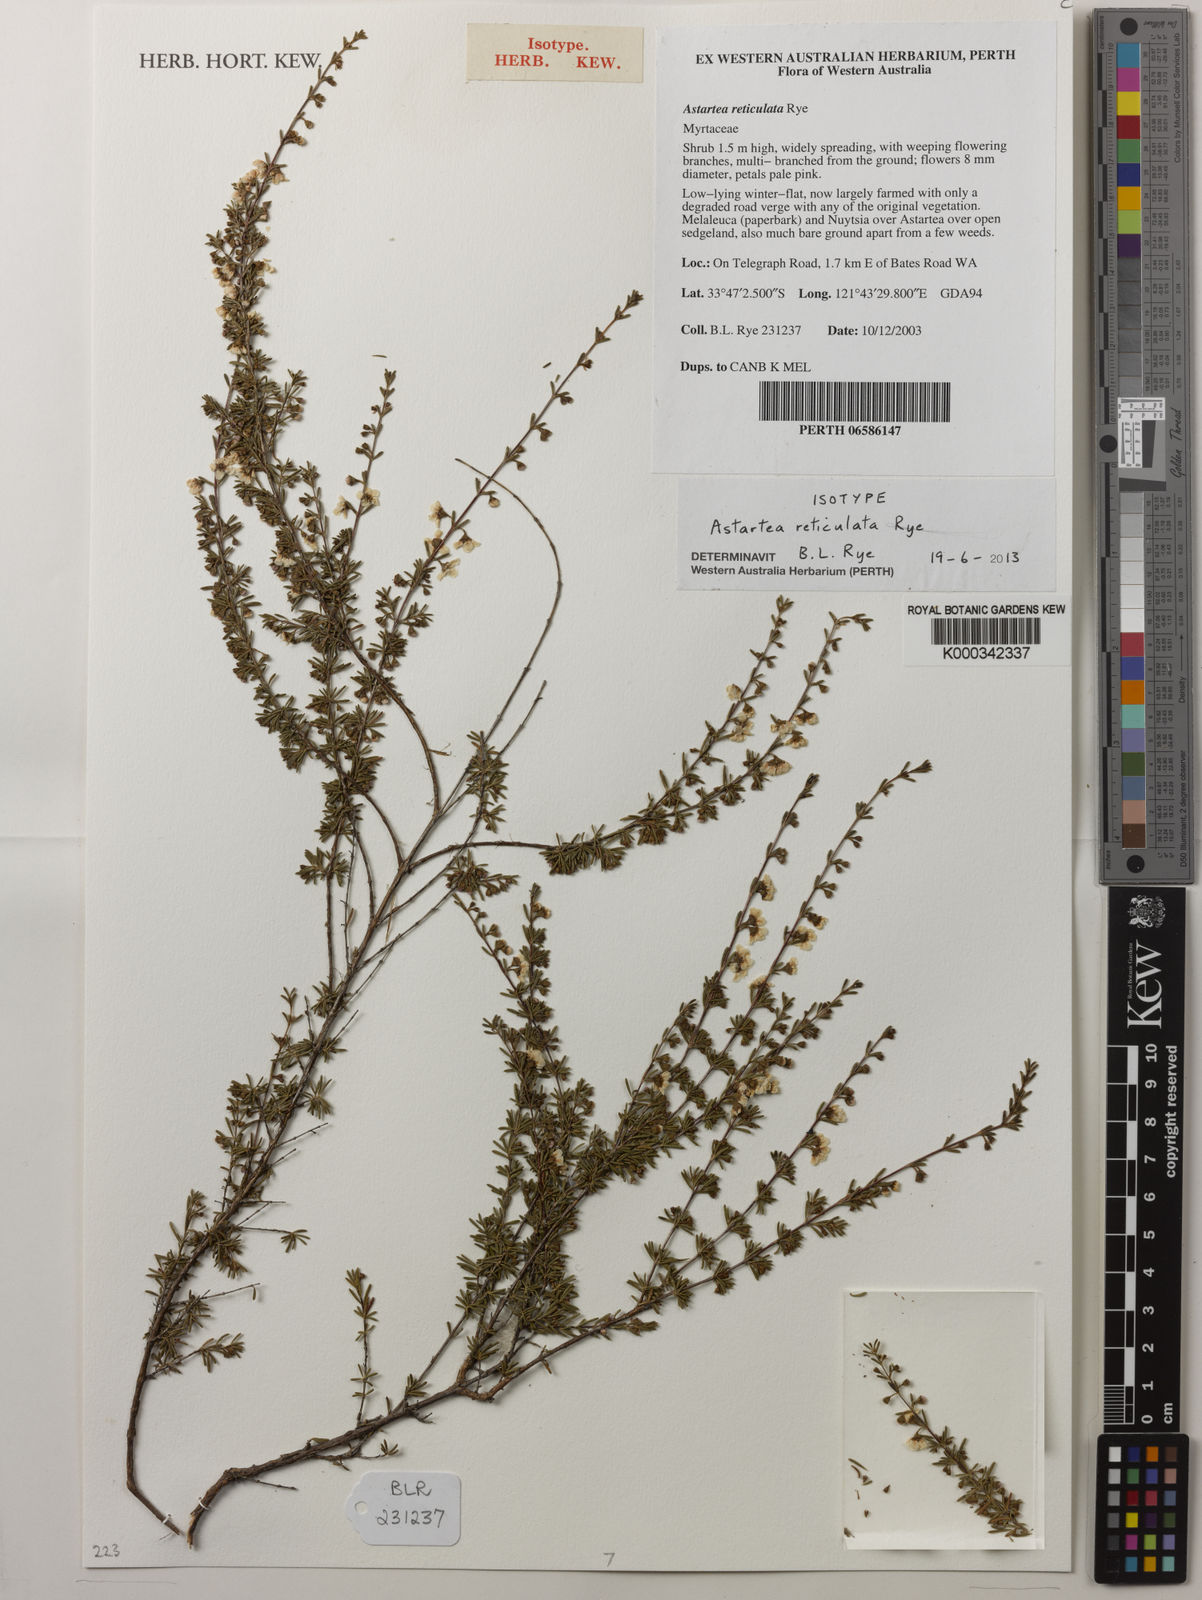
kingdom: Plantae
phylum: Tracheophyta
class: Magnoliopsida
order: Myrtales
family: Myrtaceae
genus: Astartea
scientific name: Astartea reticulata
